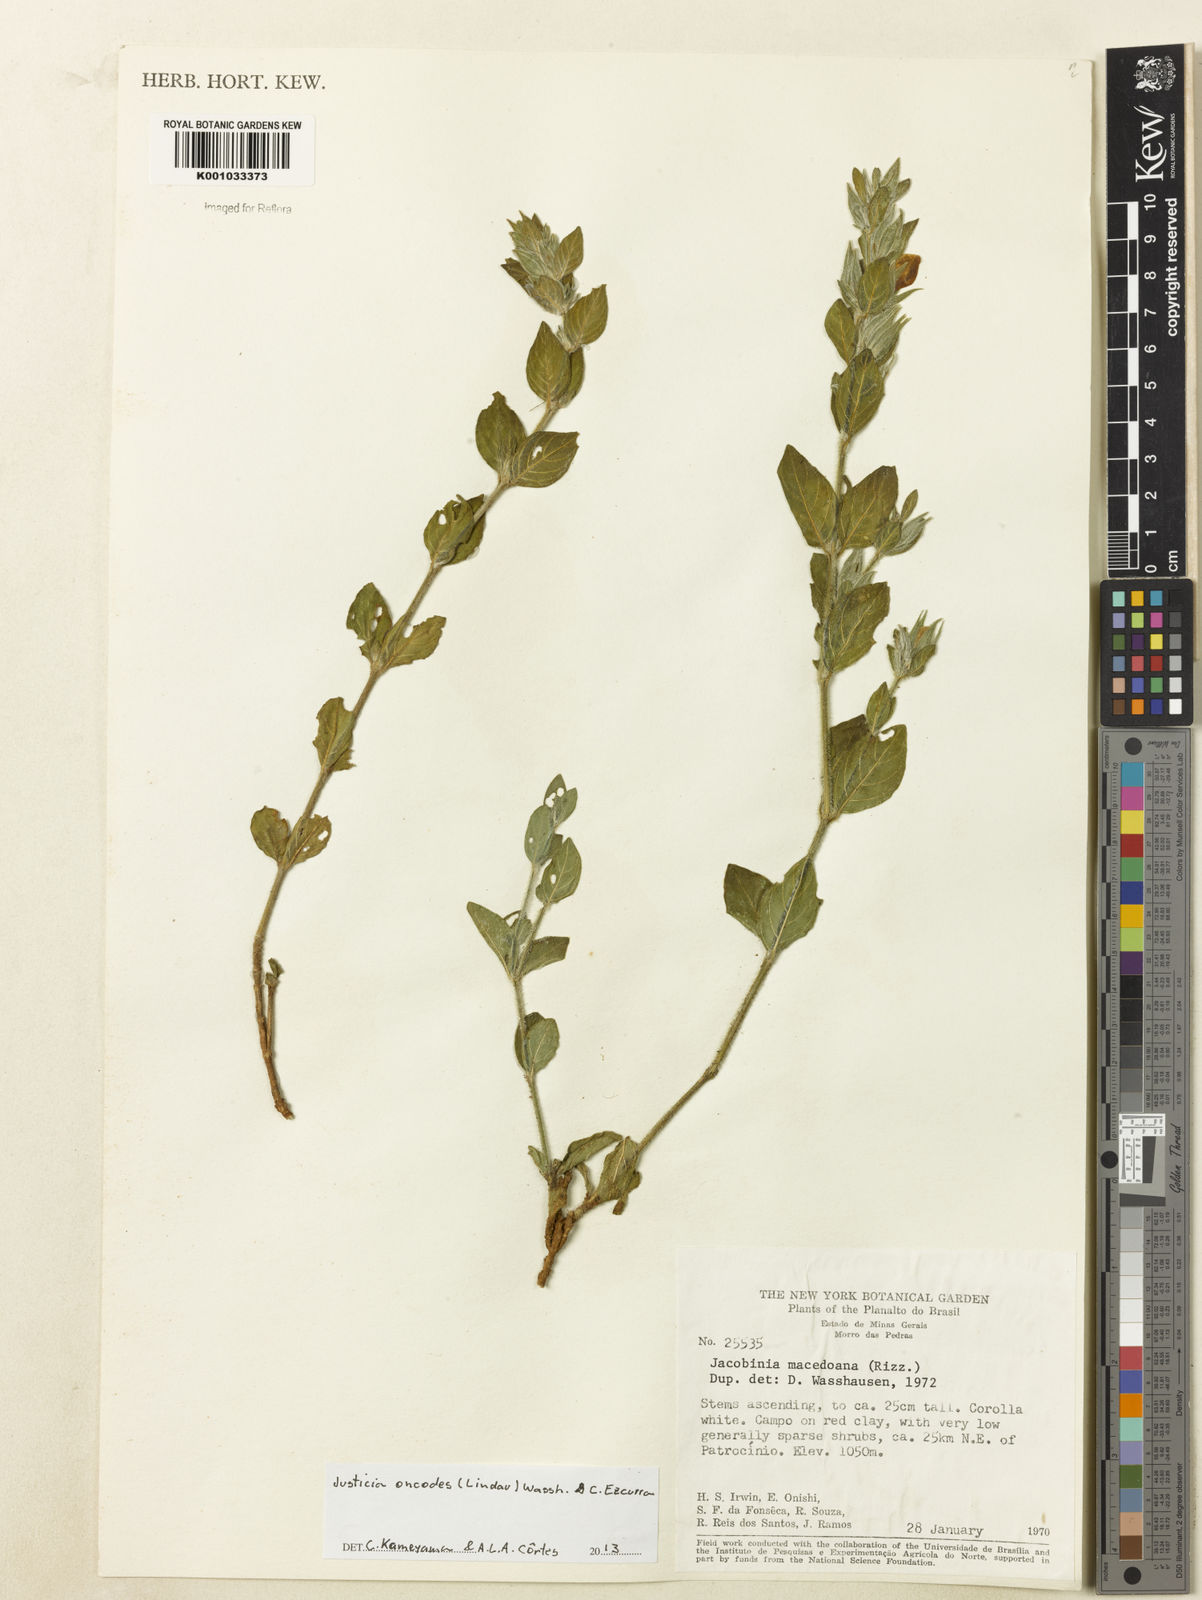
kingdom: Plantae
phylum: Tracheophyta
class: Magnoliopsida
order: Lamiales
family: Acanthaceae
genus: Justicia
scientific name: Justicia oncodes
